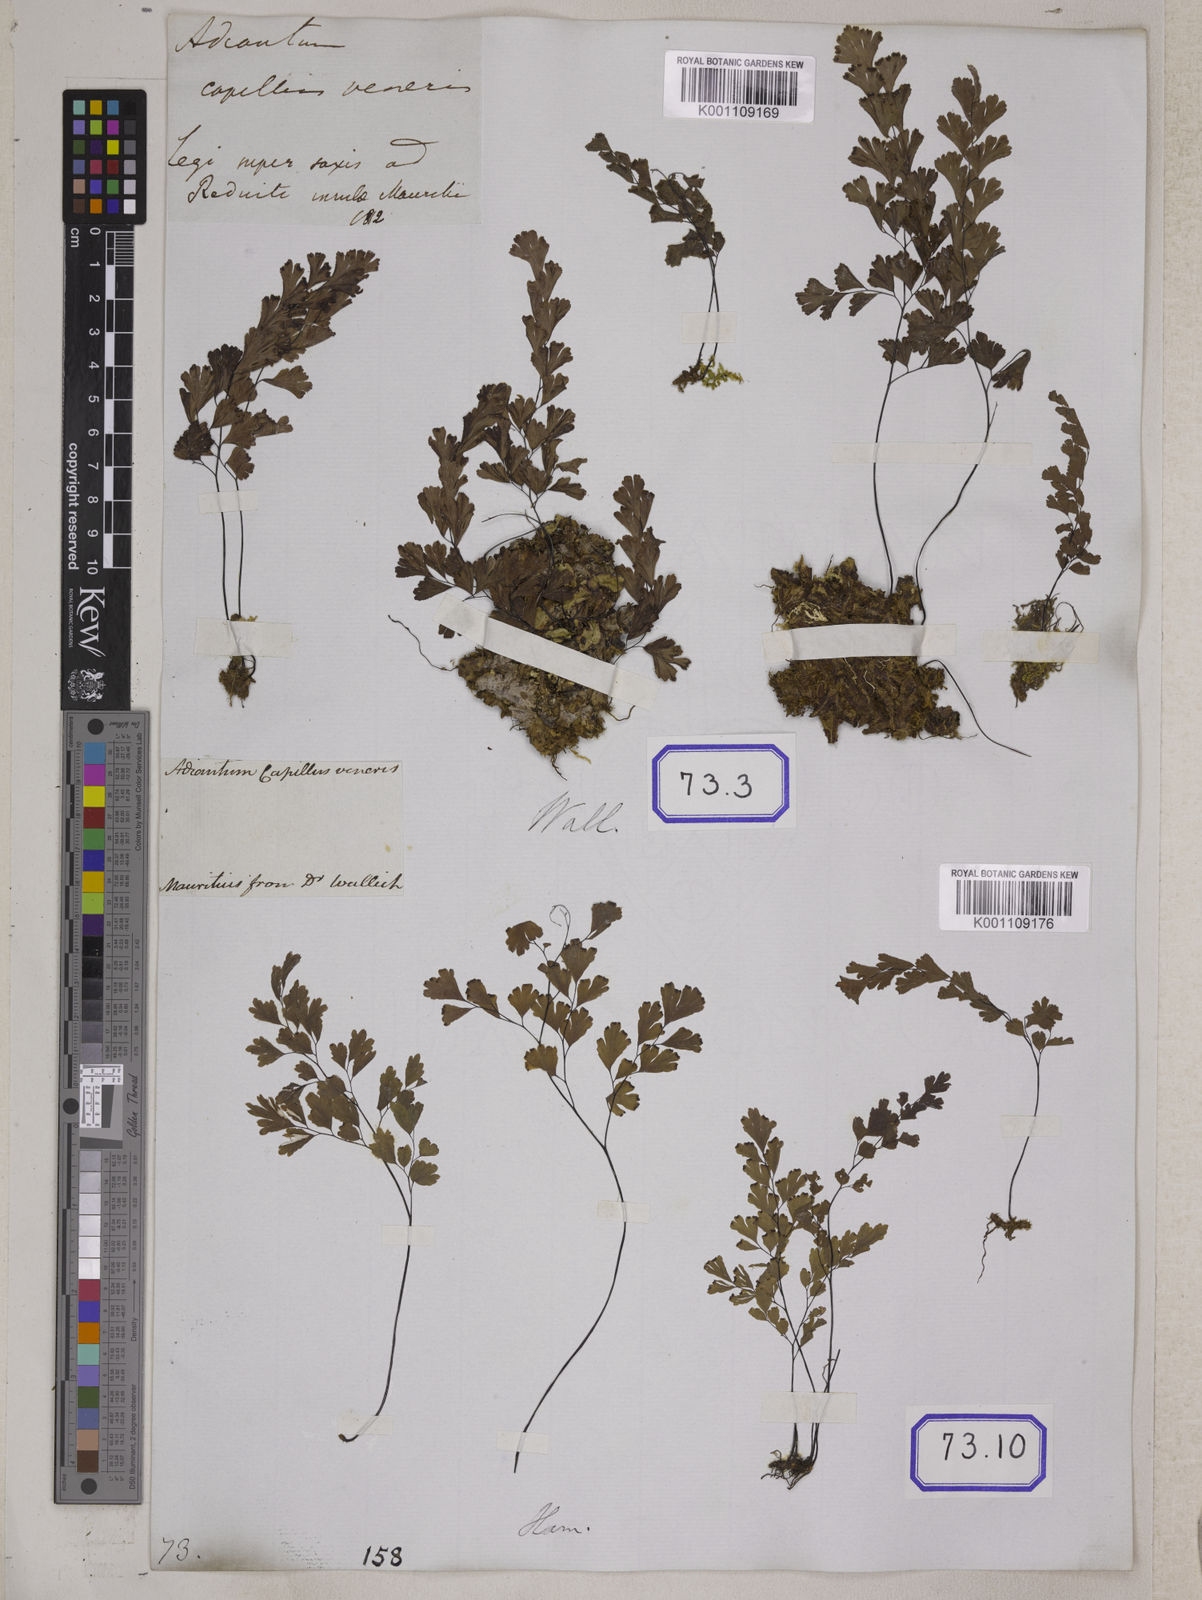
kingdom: Plantae
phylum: Tracheophyta
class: Polypodiopsida
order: Polypodiales
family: Pteridaceae
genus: Adiantum
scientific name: Adiantum
